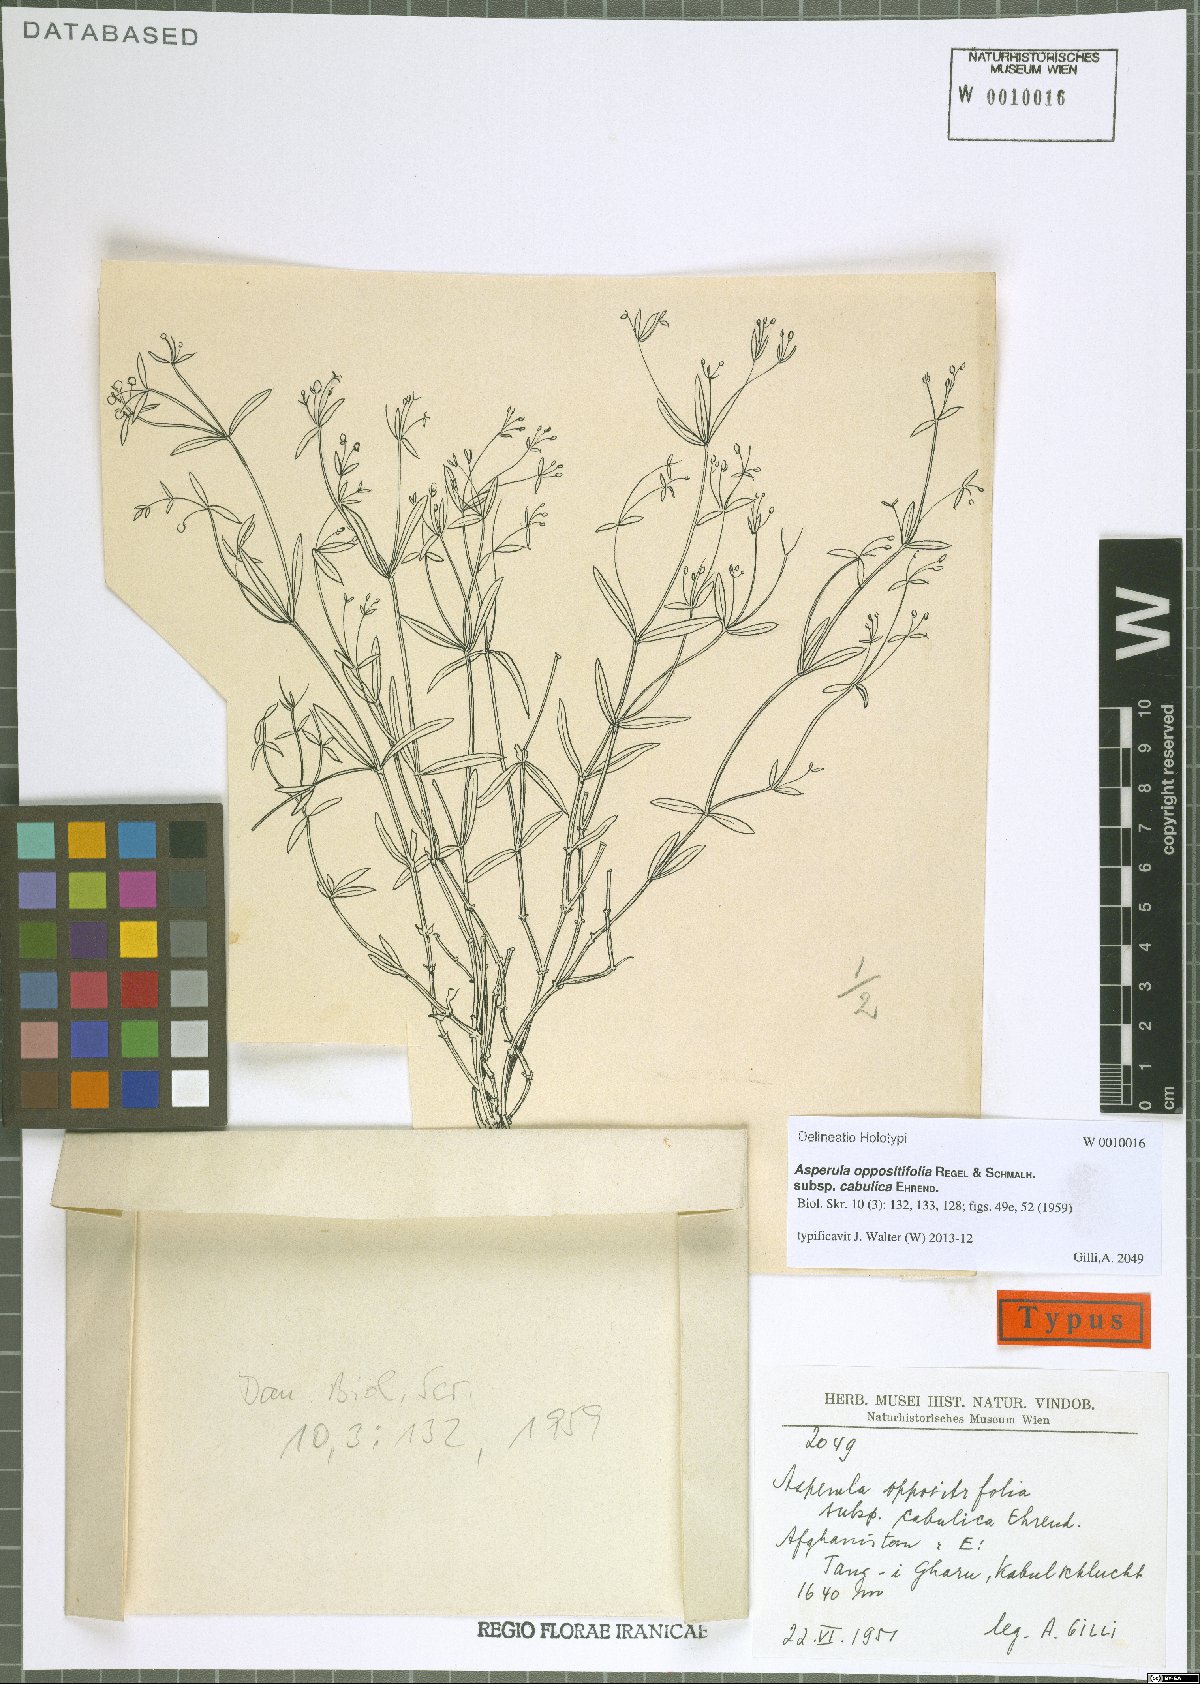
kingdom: Plantae
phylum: Tracheophyta
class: Magnoliopsida
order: Gentianales
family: Rubiaceae
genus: Asperula
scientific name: Asperula oppositifolia
